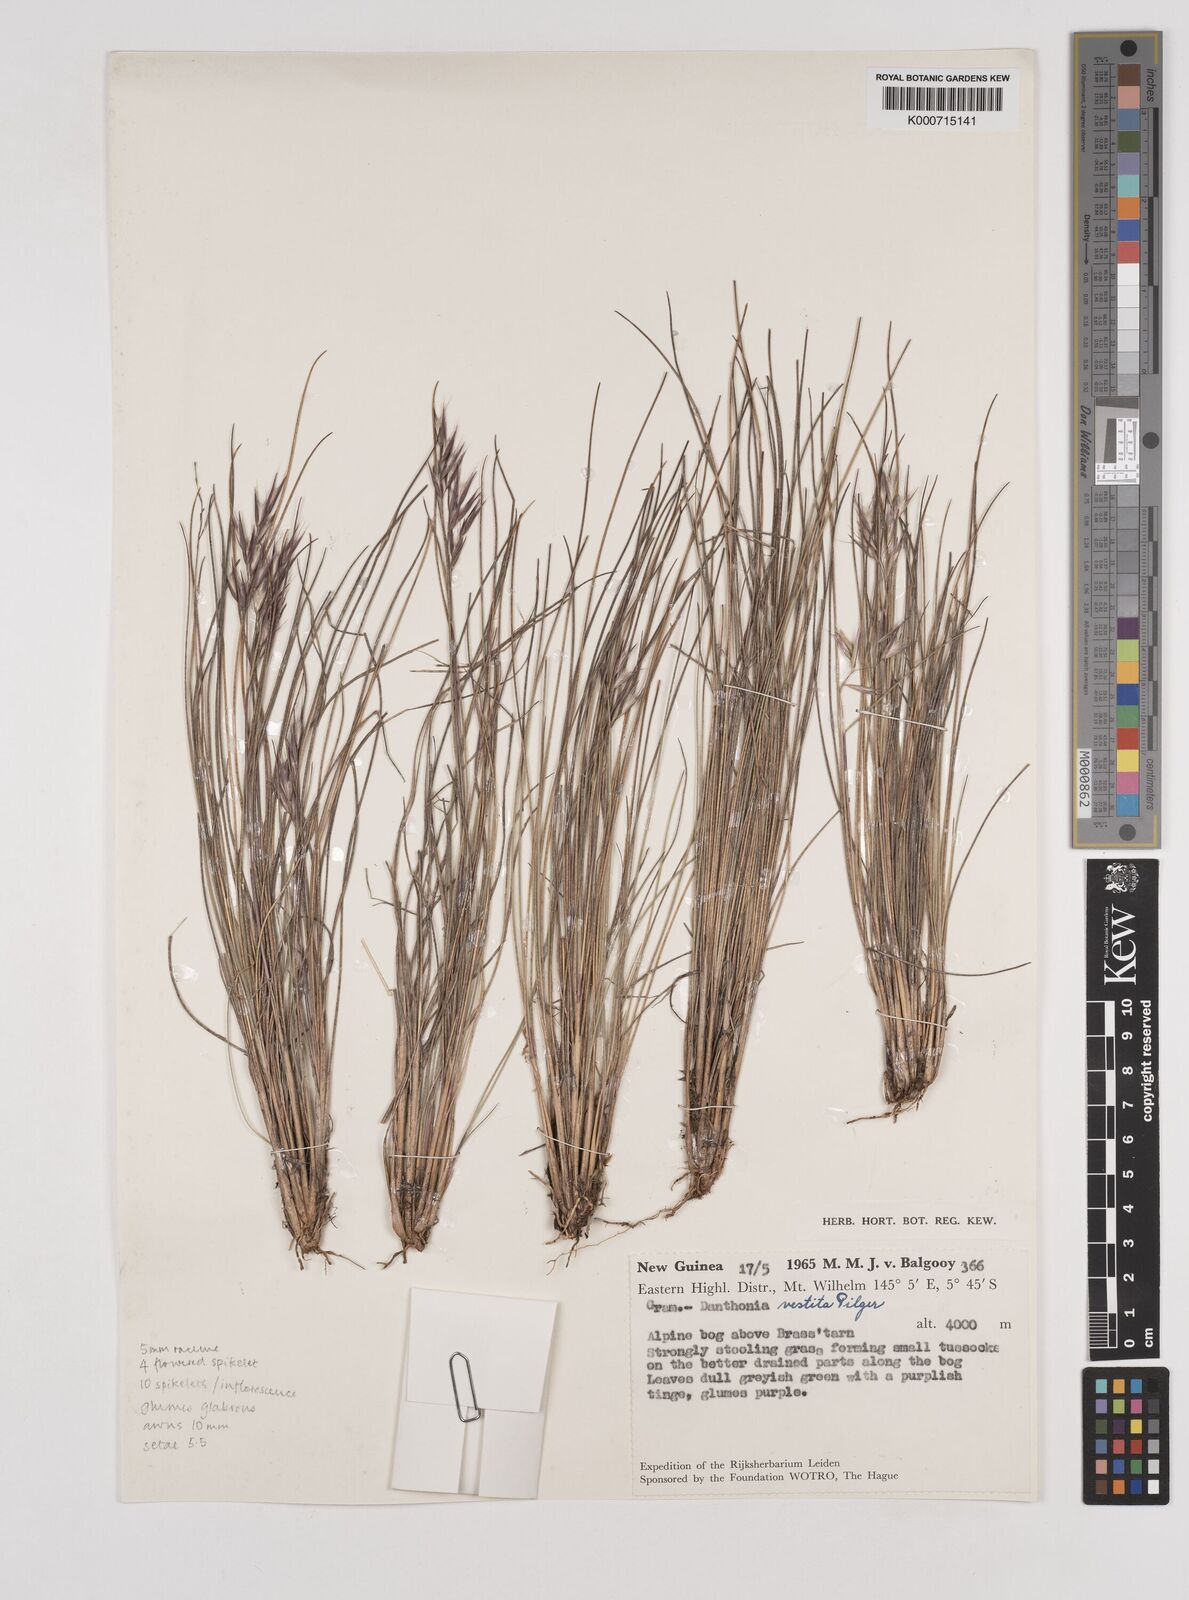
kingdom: Plantae
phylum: Tracheophyta
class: Liliopsida
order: Poales
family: Poaceae
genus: Rytidosperma
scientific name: Rytidosperma vestitum
